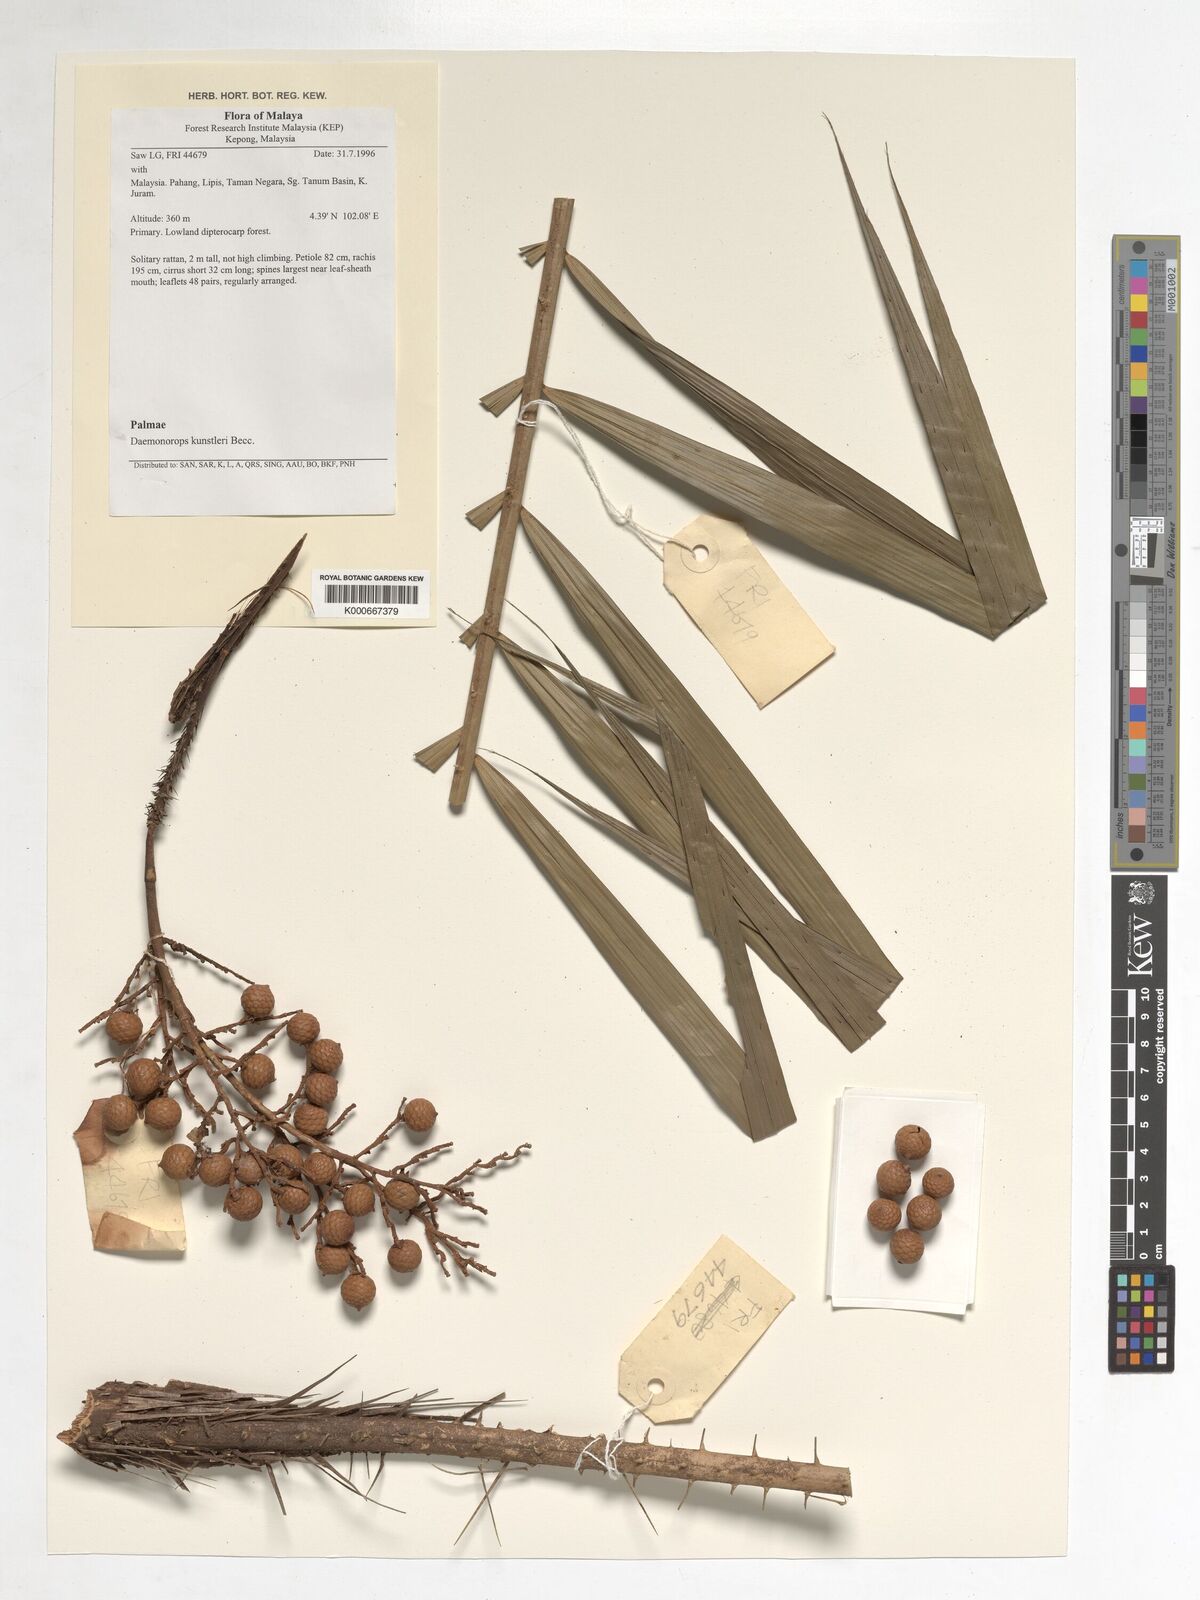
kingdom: Plantae
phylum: Tracheophyta
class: Liliopsida
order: Arecales
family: Arecaceae
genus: Calamus
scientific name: Calamus kunstleri
